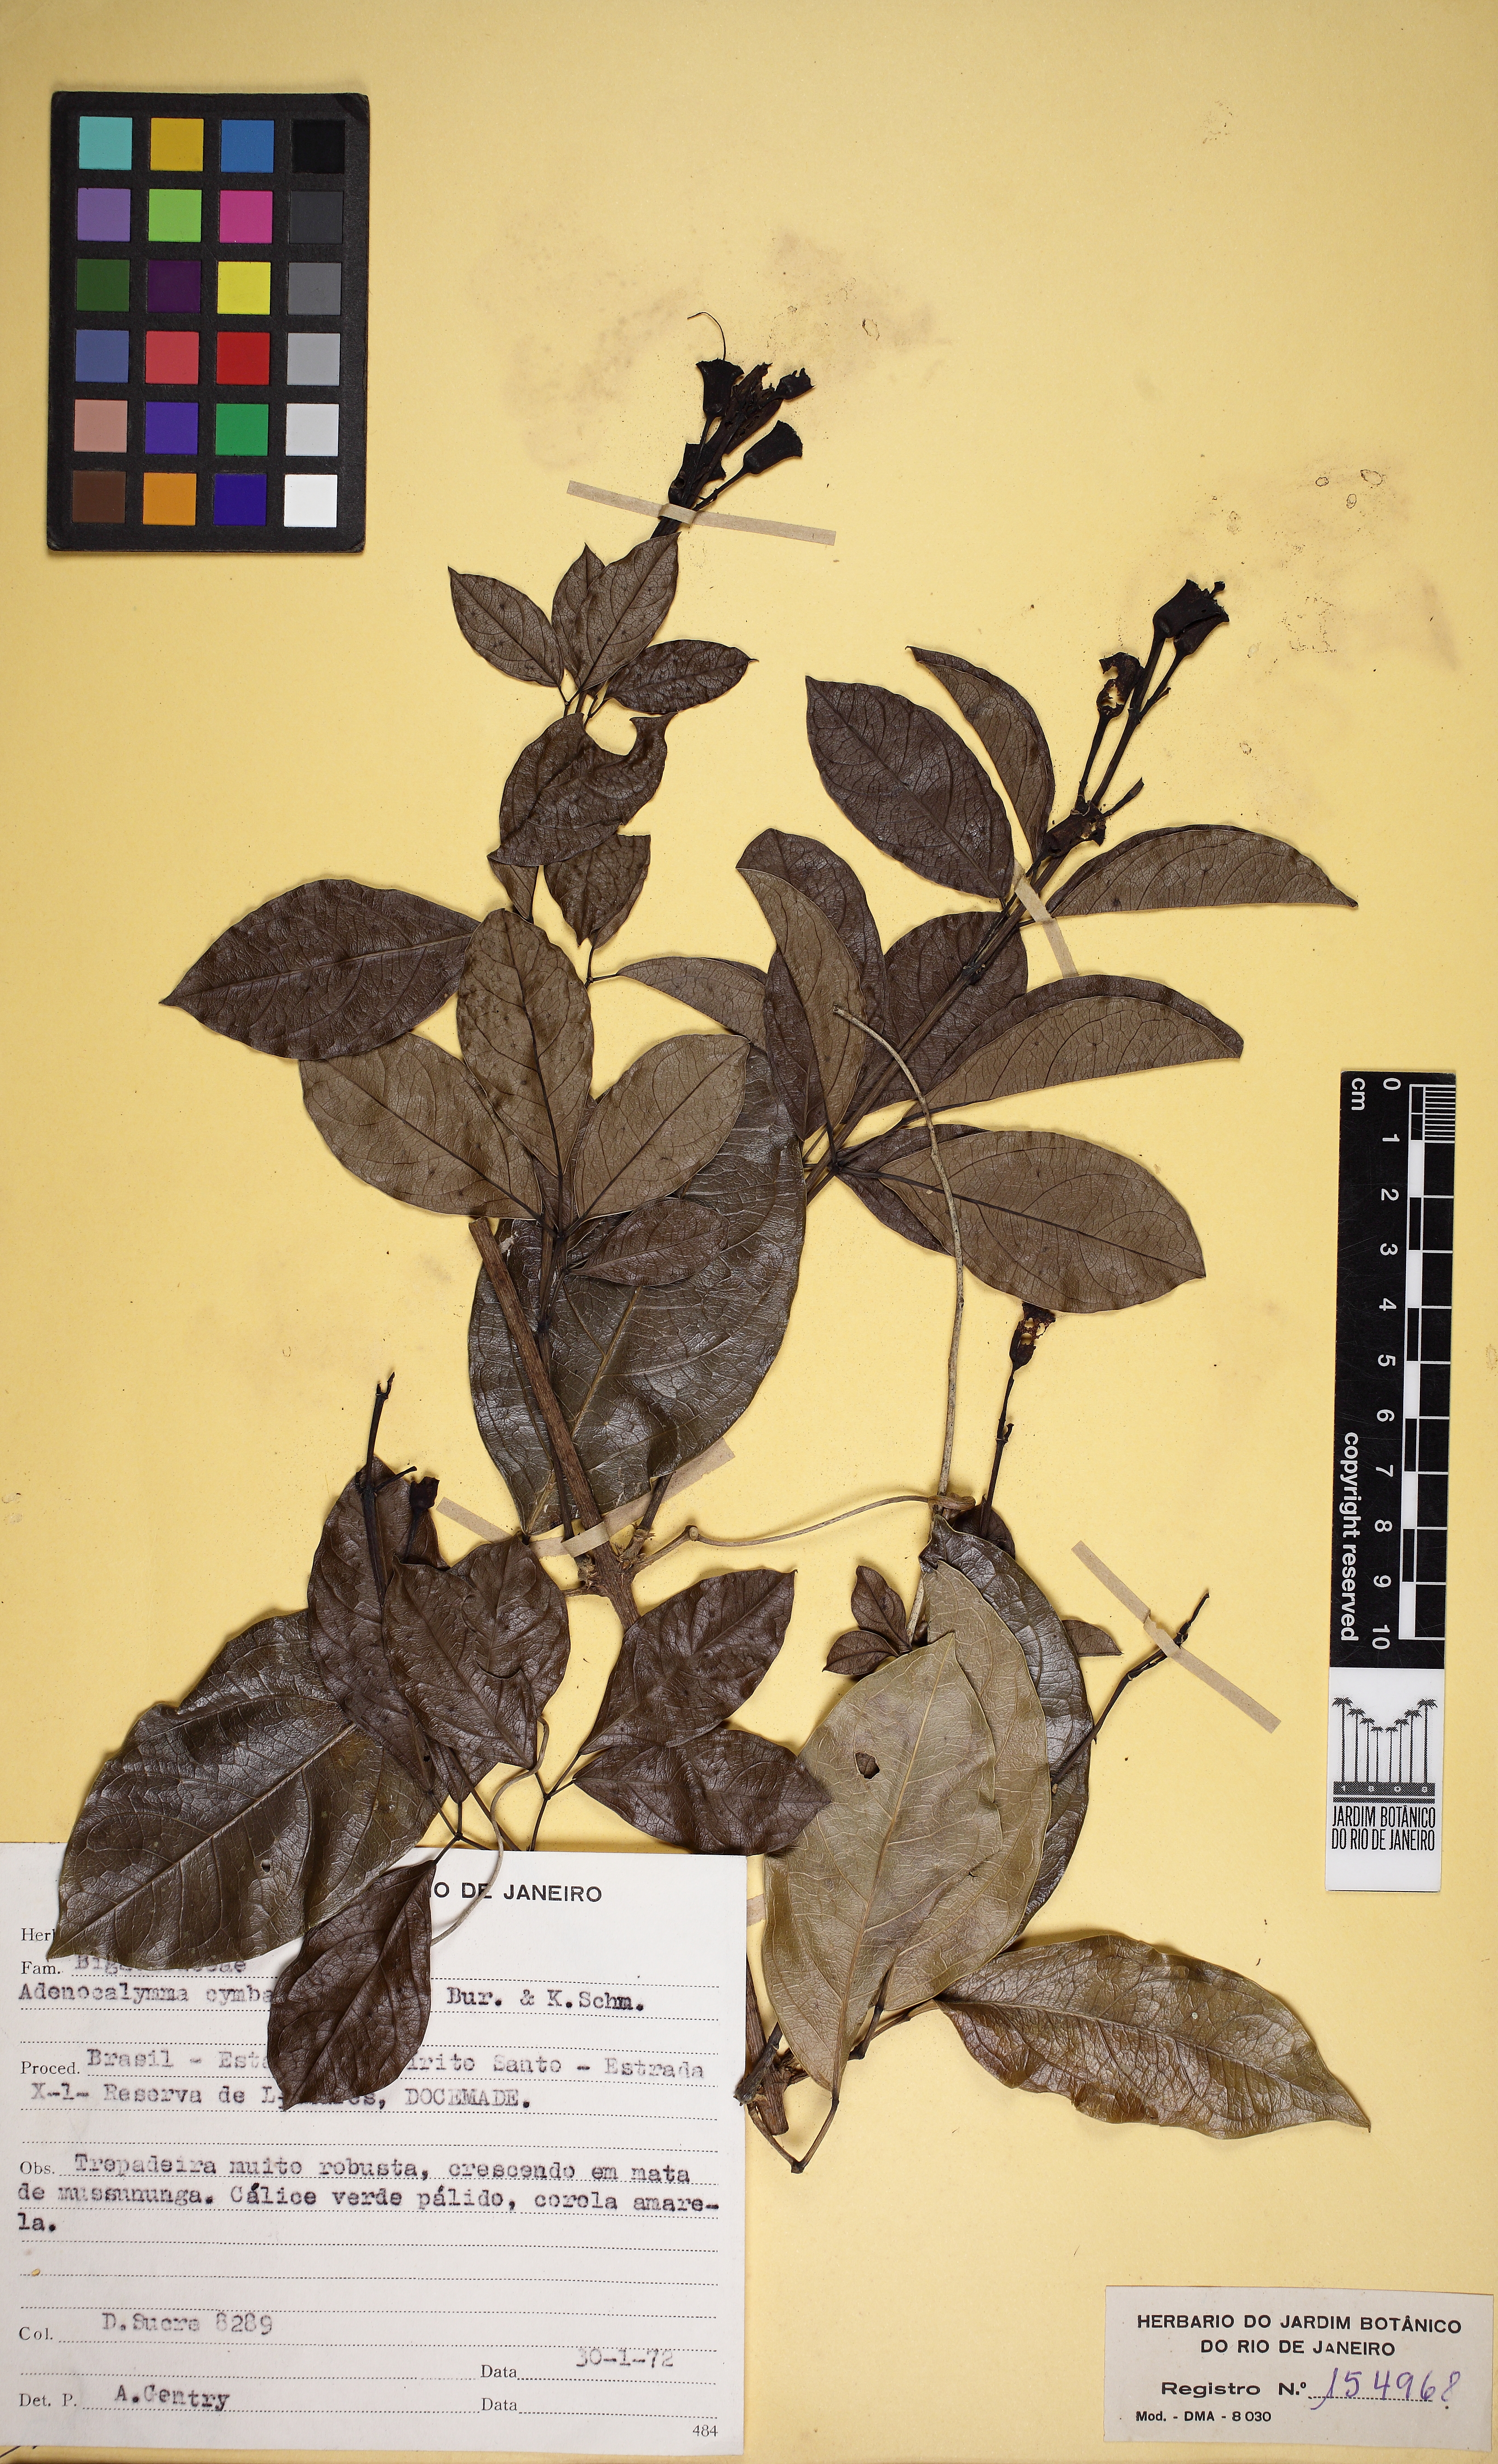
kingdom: Plantae
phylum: Tracheophyta
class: Magnoliopsida
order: Lamiales
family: Bignoniaceae
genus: Adenocalymma
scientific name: Adenocalymma cymbalum
